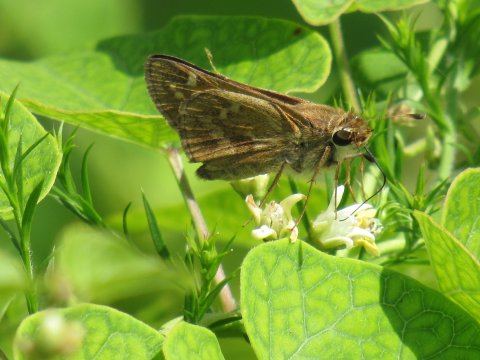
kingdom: Animalia
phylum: Arthropoda
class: Insecta
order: Lepidoptera
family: Hesperiidae
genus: Atalopedes
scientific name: Atalopedes campestris
